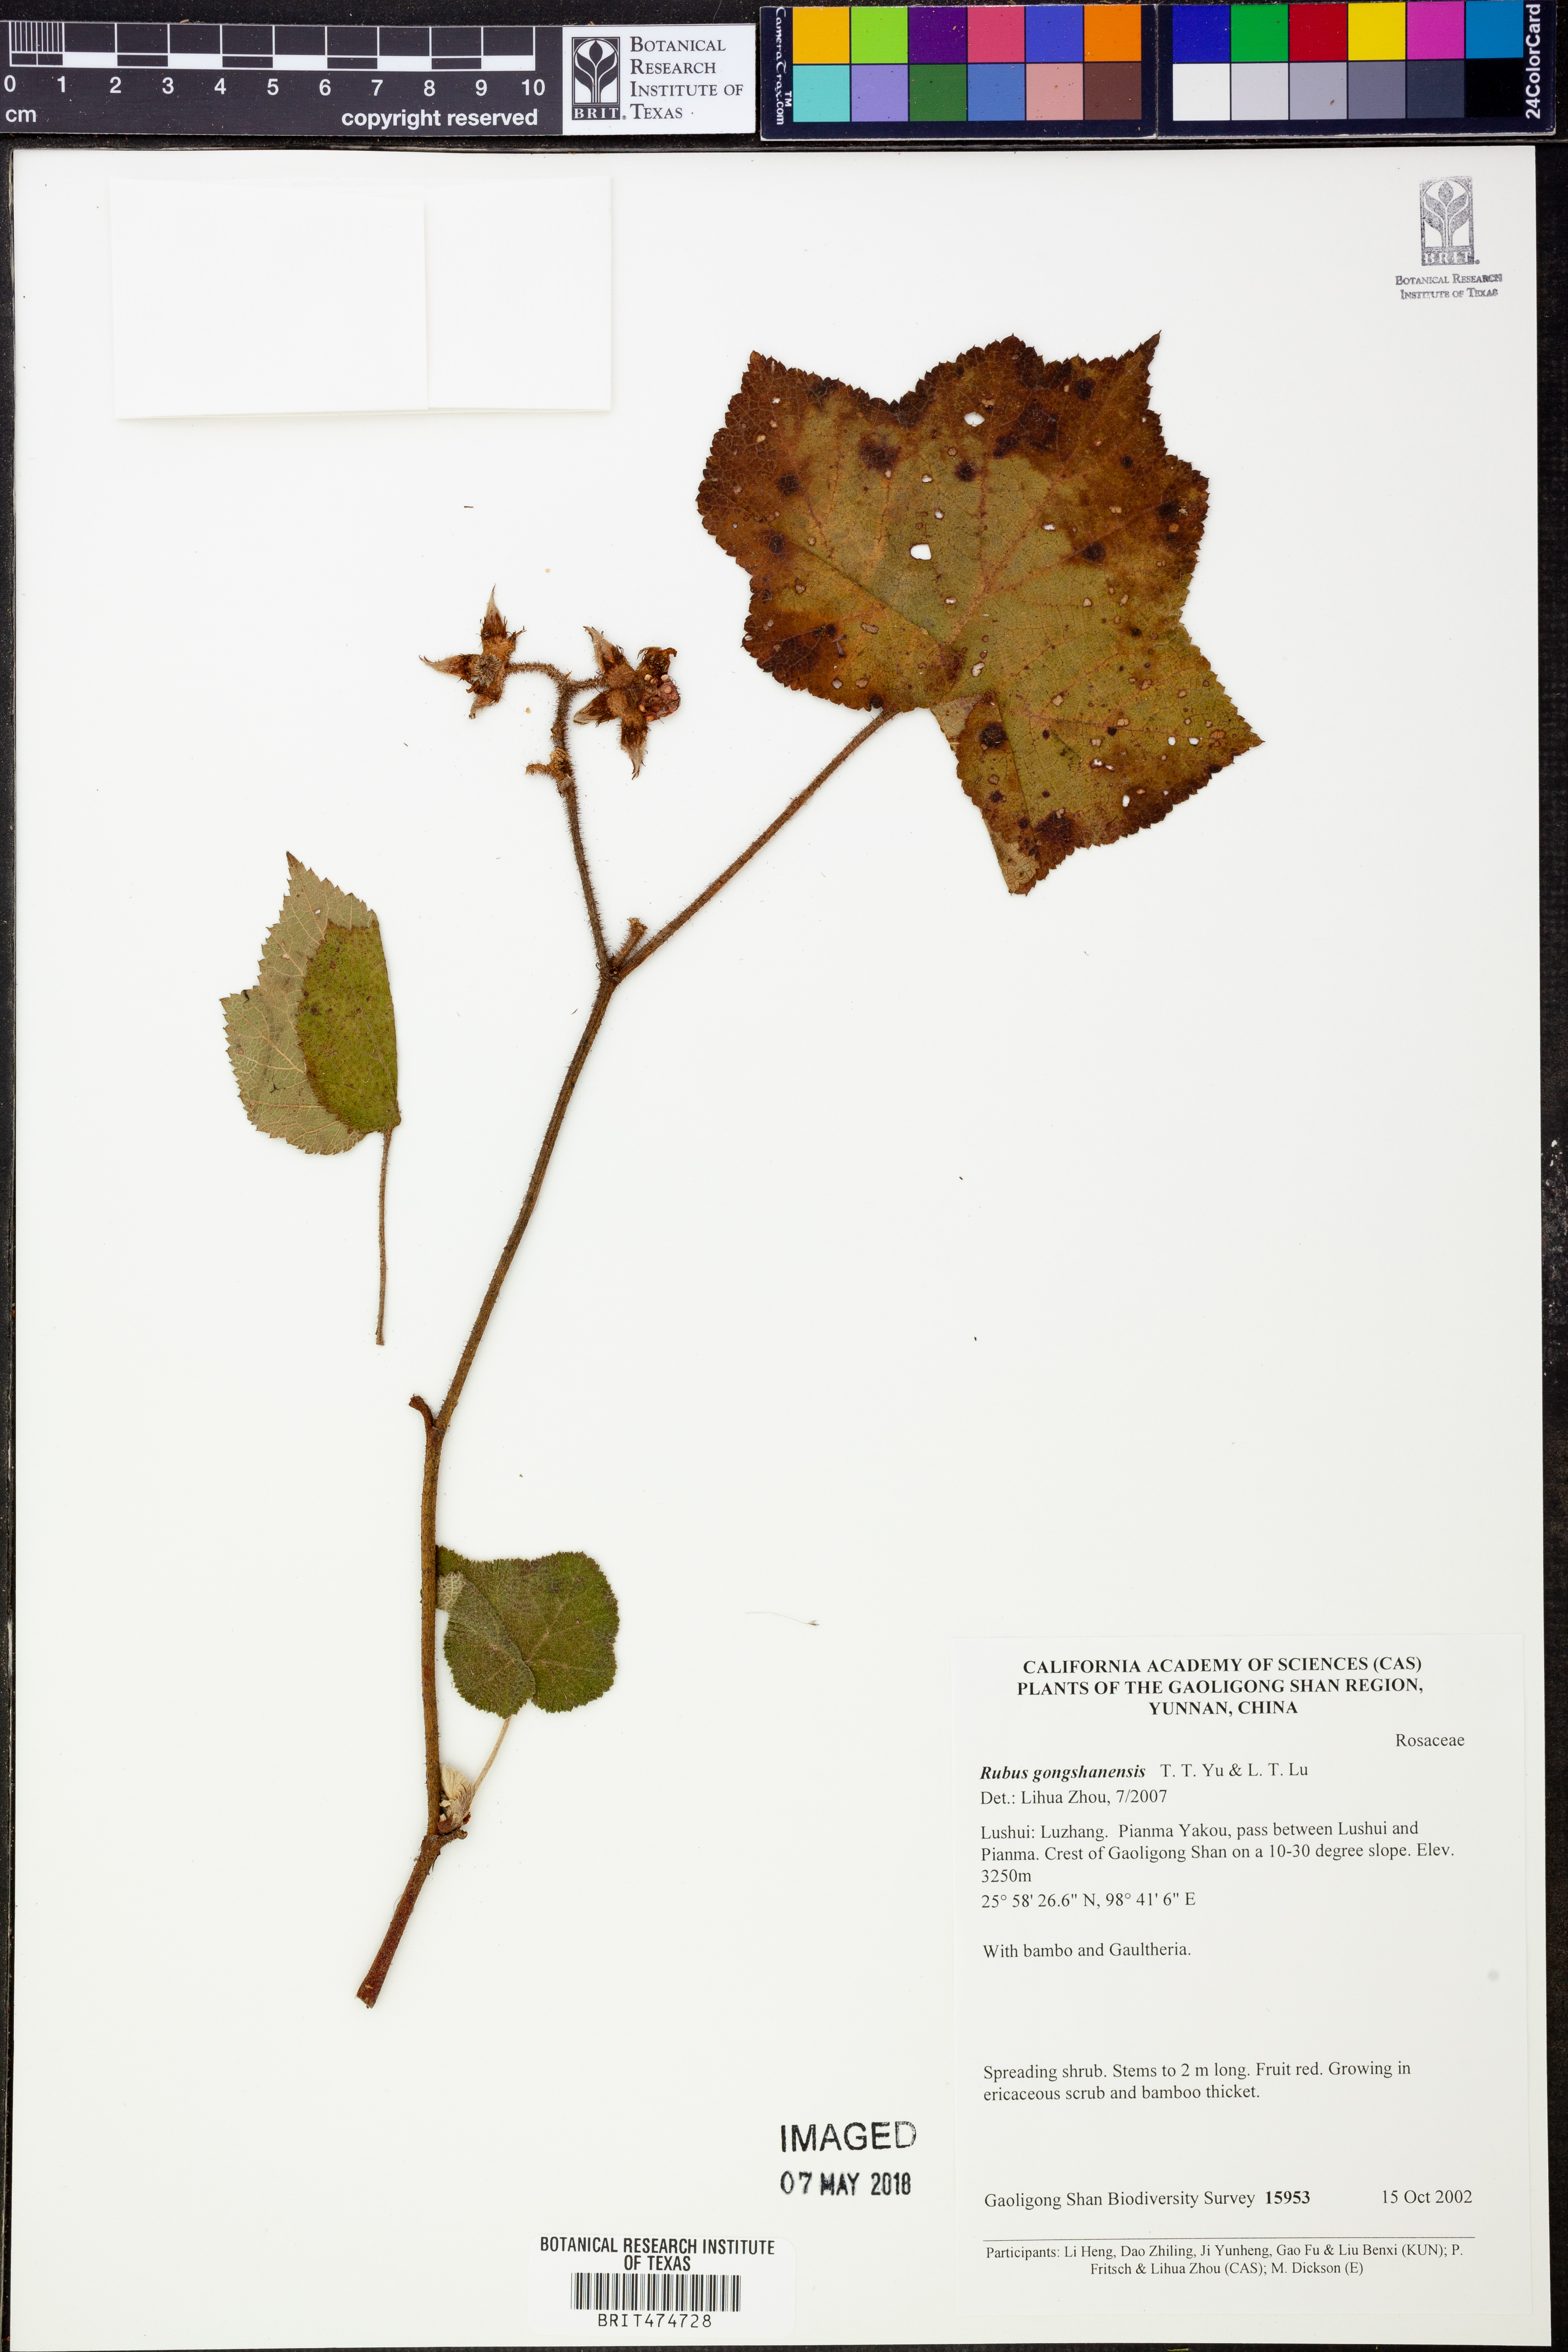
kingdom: Plantae
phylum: Tracheophyta
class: Magnoliopsida
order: Rosales
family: Rosaceae
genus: Rubus
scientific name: Rubus gongshanensis
